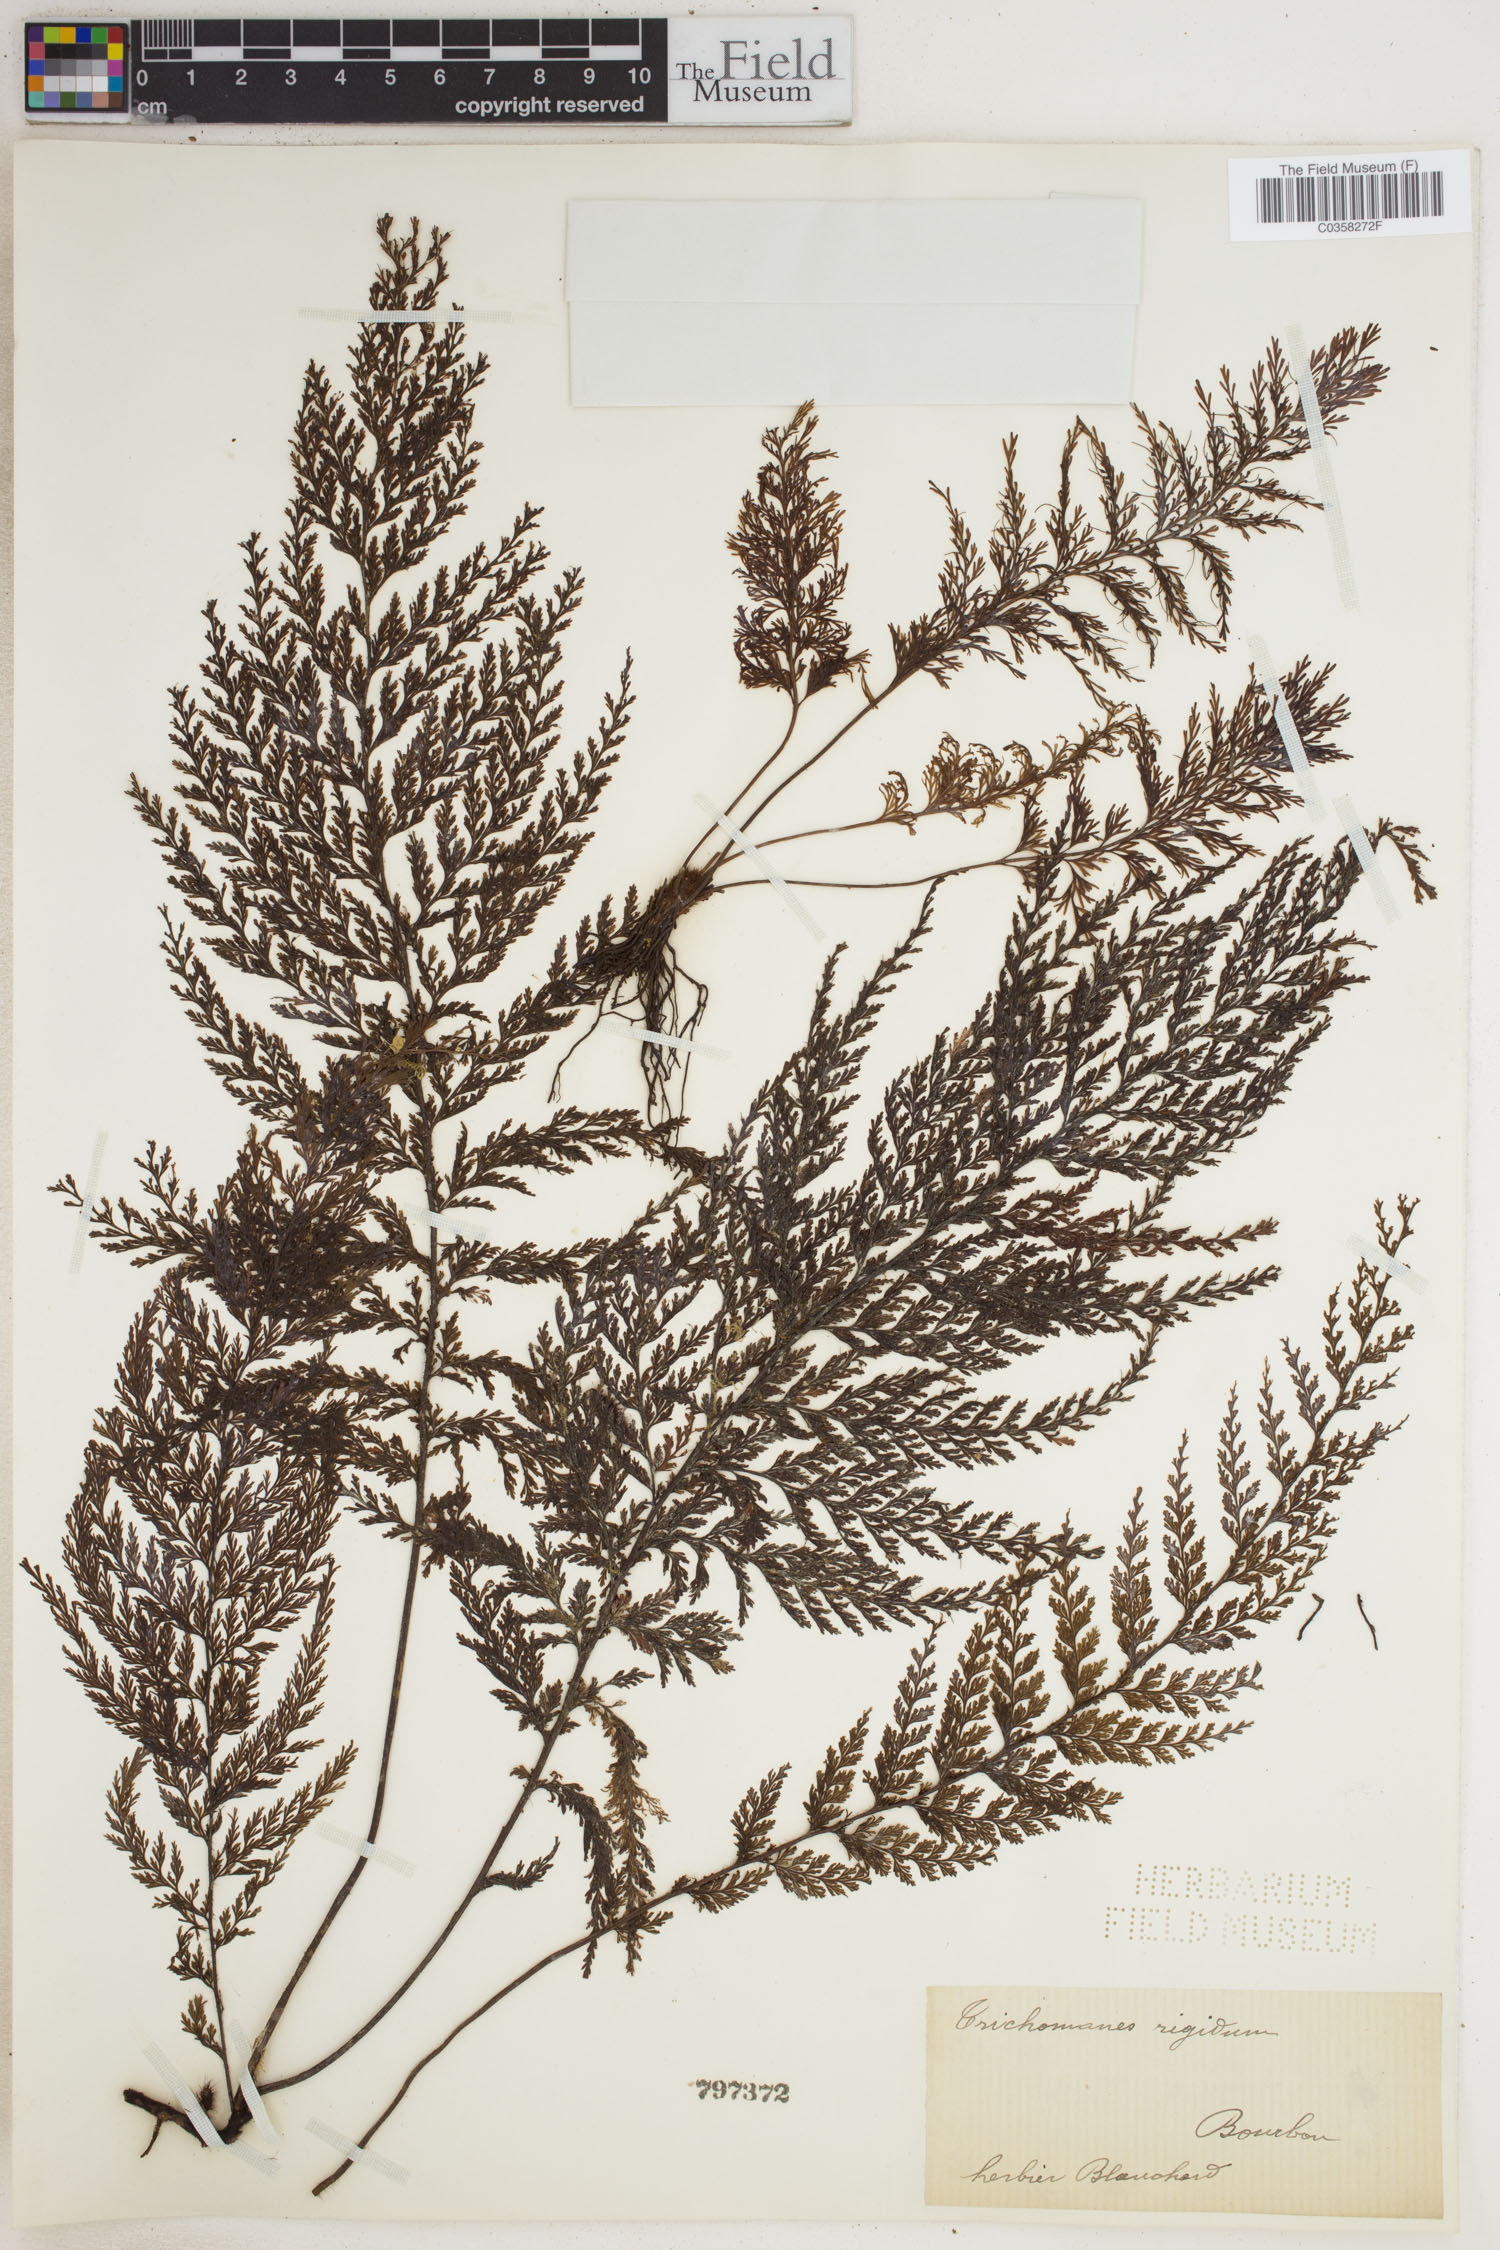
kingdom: Plantae
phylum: Tracheophyta
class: Polypodiopsida
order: Hymenophyllales
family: Hymenophyllaceae
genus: Abrodictyum
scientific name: Abrodictyum rigidum
